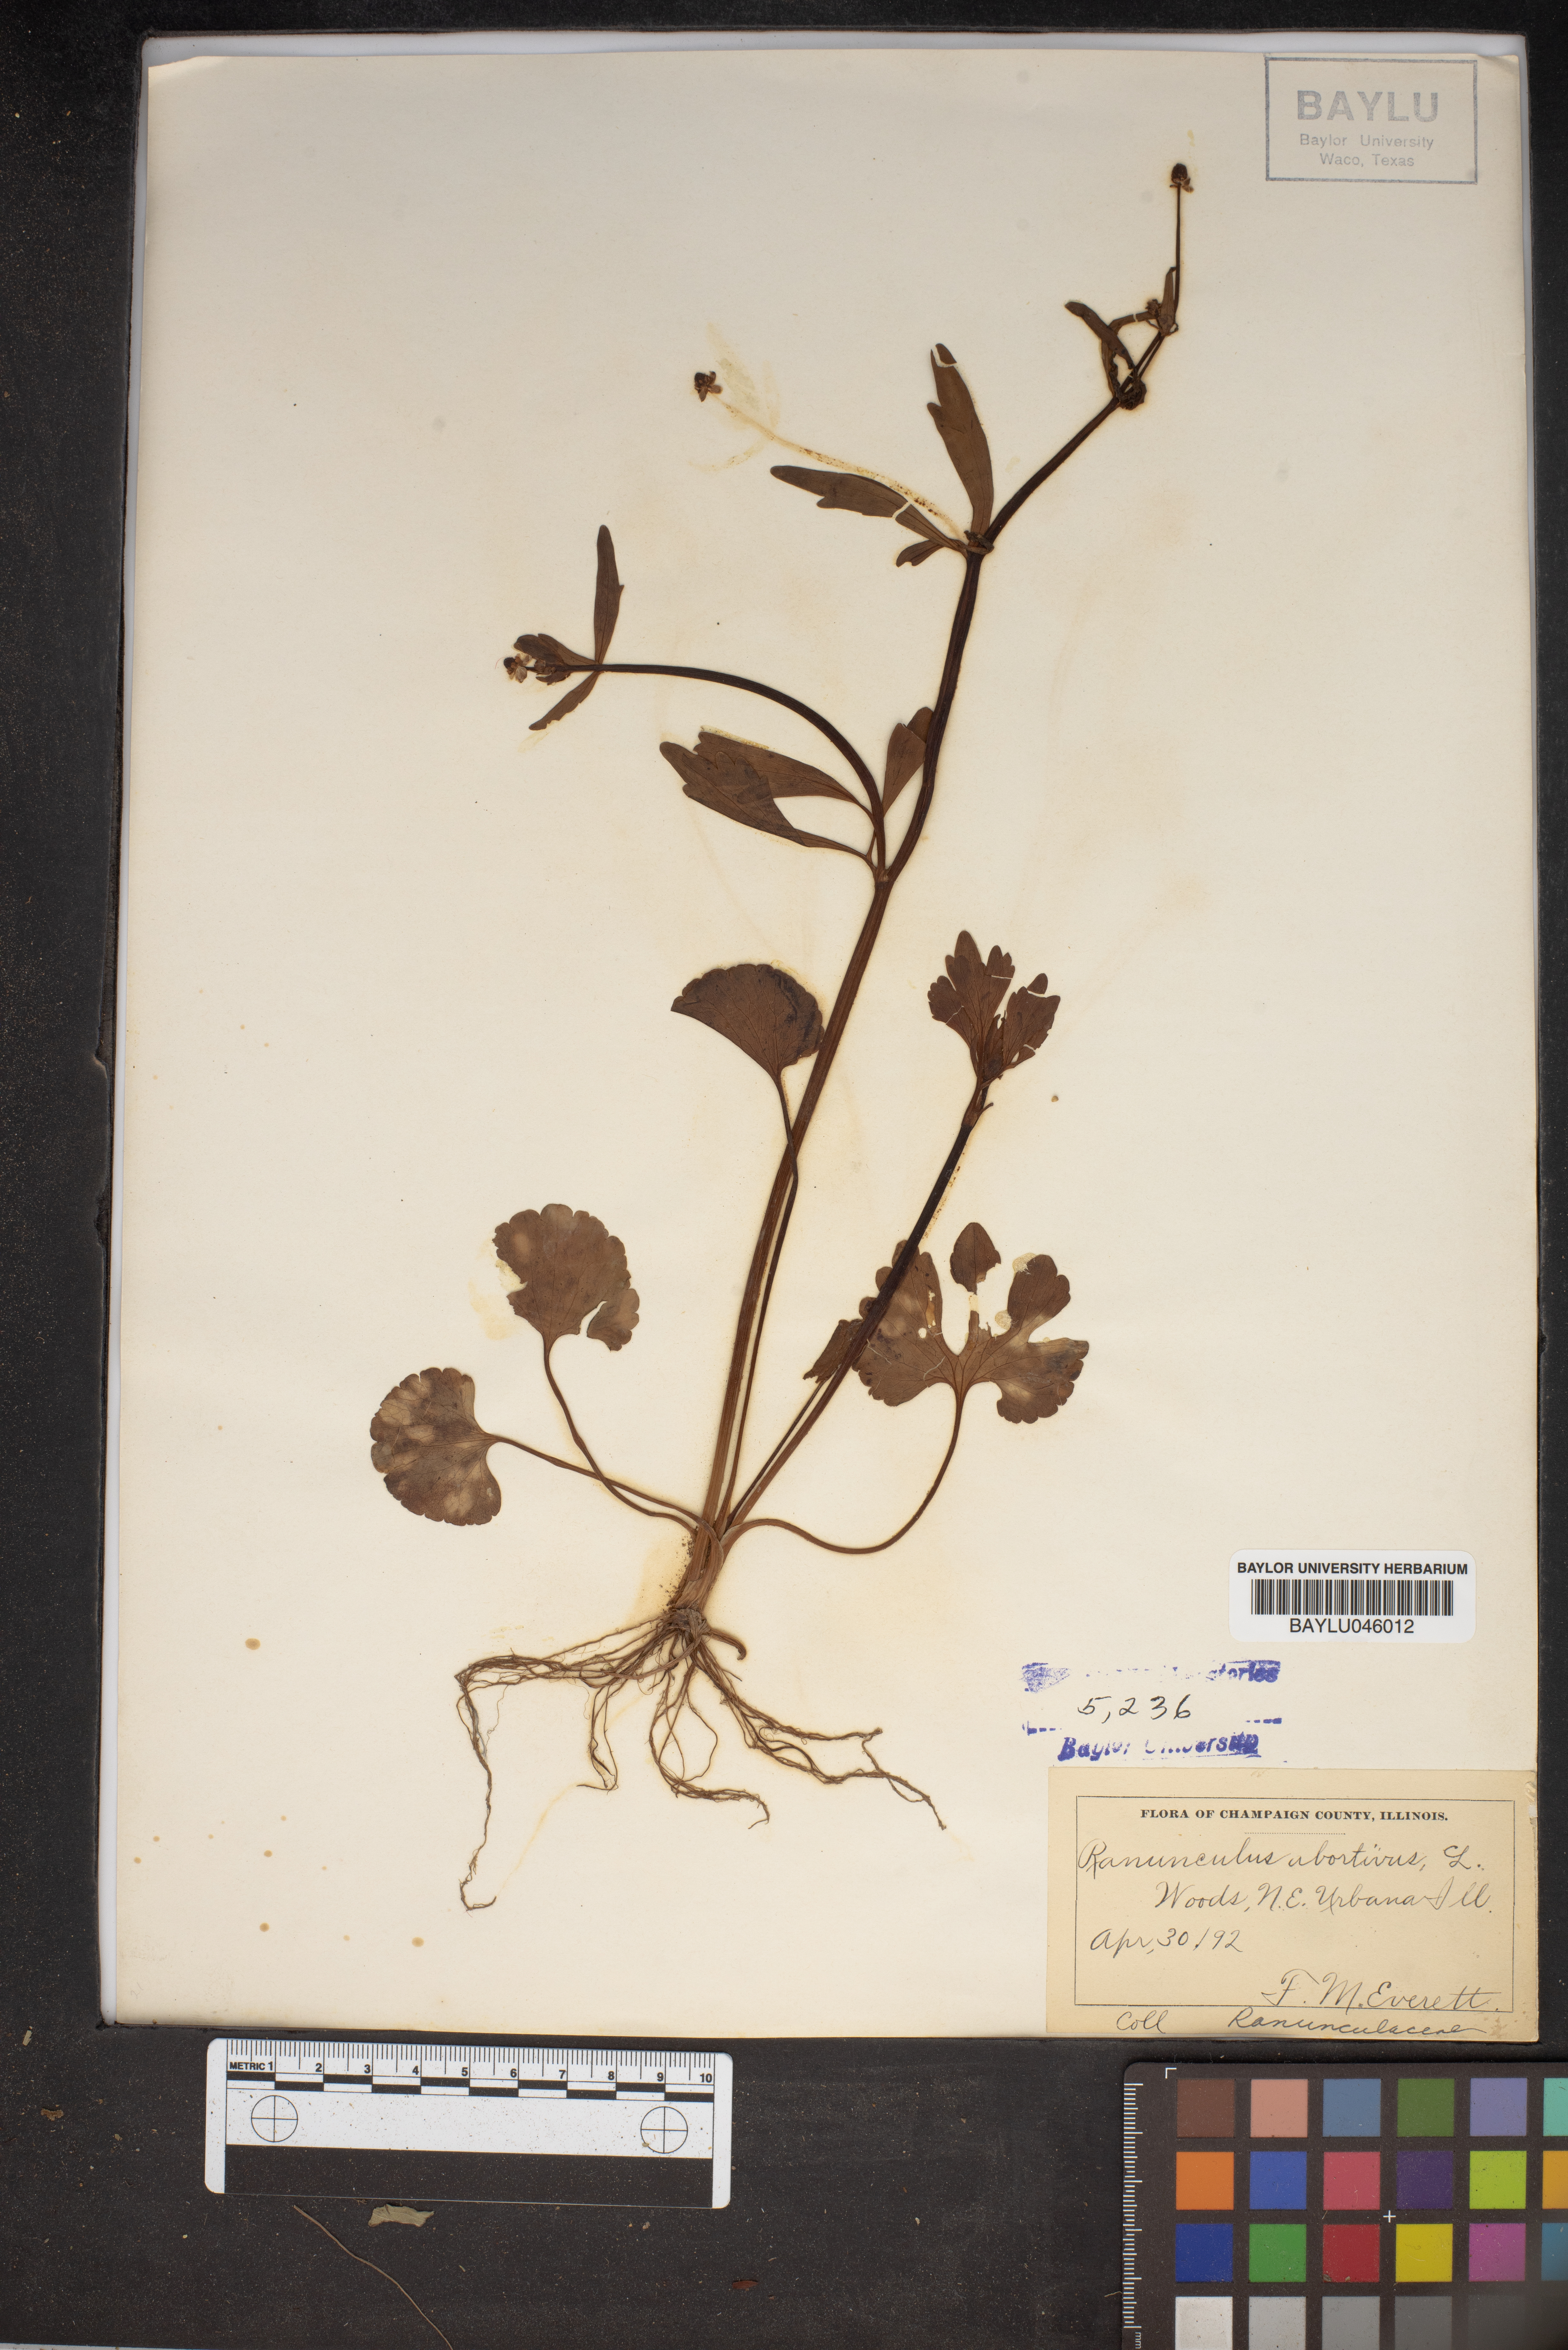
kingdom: Plantae
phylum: Tracheophyta
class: Magnoliopsida
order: Ranunculales
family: Ranunculaceae
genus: Ranunculus
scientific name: Ranunculus abortivus
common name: Early wood buttercup
